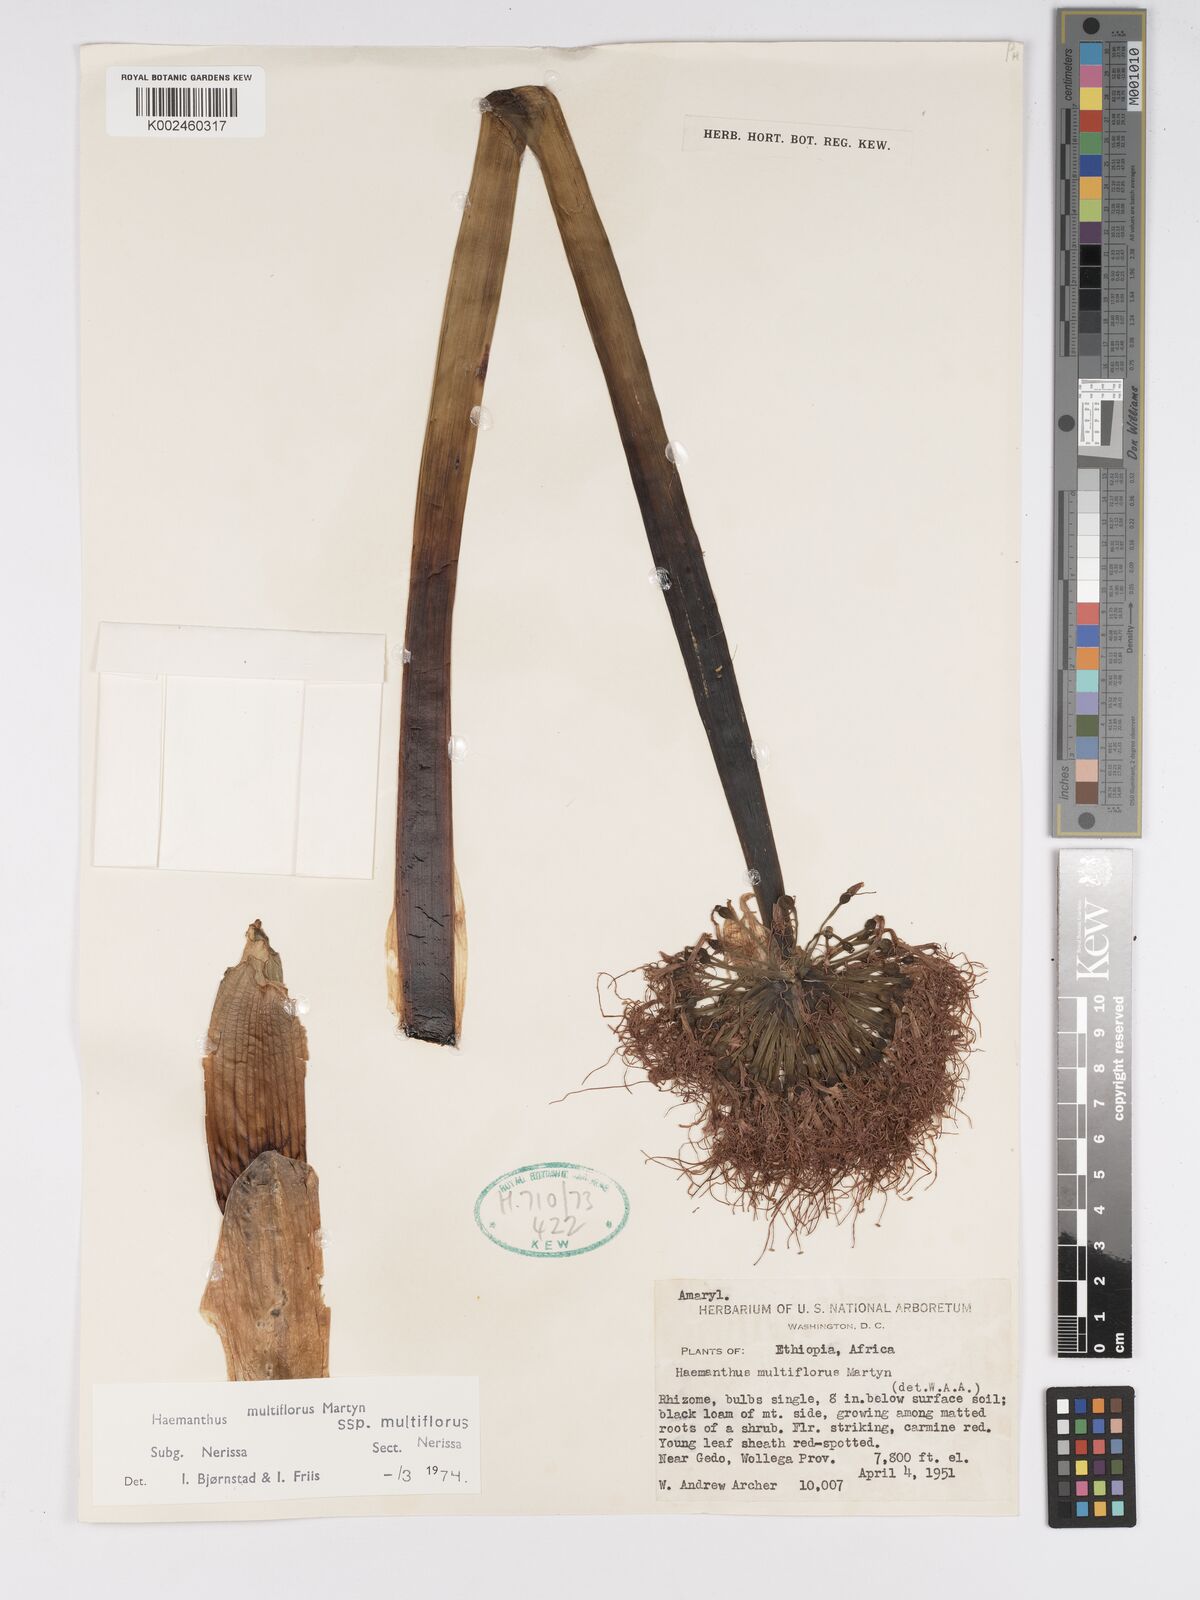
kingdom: Plantae
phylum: Tracheophyta
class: Liliopsida
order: Asparagales
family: Amaryllidaceae
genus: Scadoxus
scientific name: Scadoxus multiflorus
